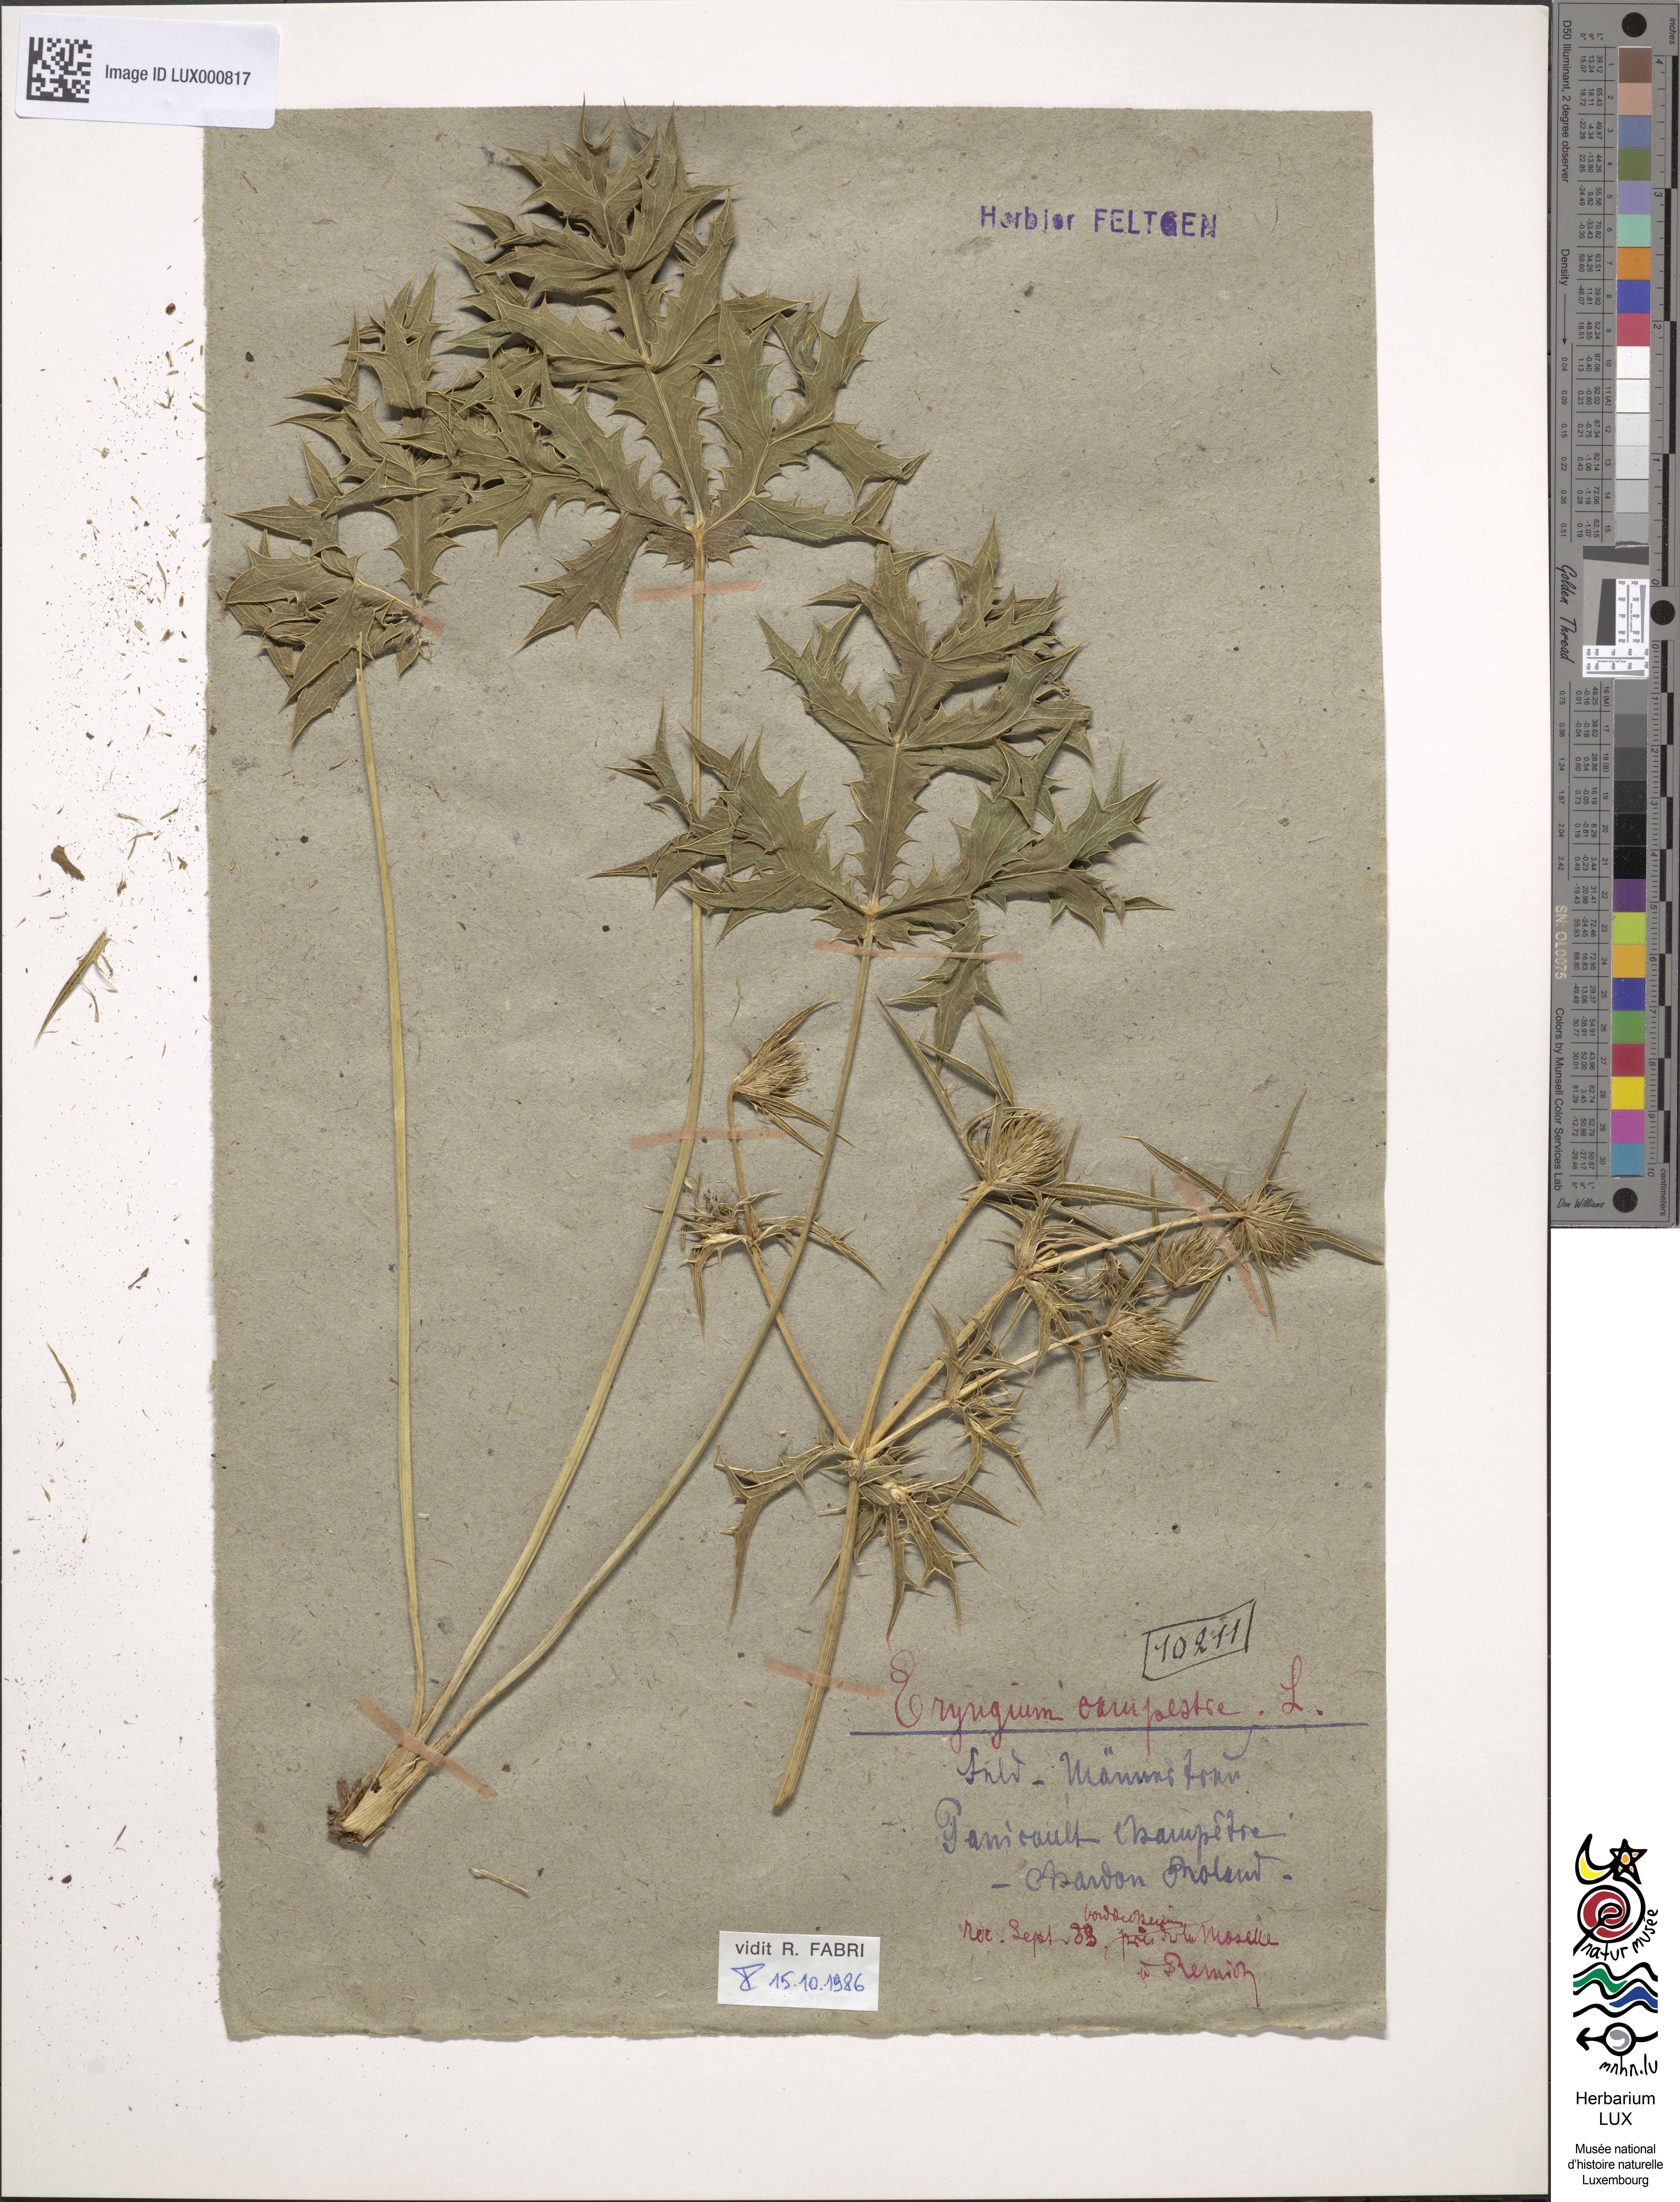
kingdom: Plantae
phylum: Tracheophyta
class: Magnoliopsida
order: Apiales
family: Apiaceae
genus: Eryngium
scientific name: Eryngium campestre
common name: Field eryngo
